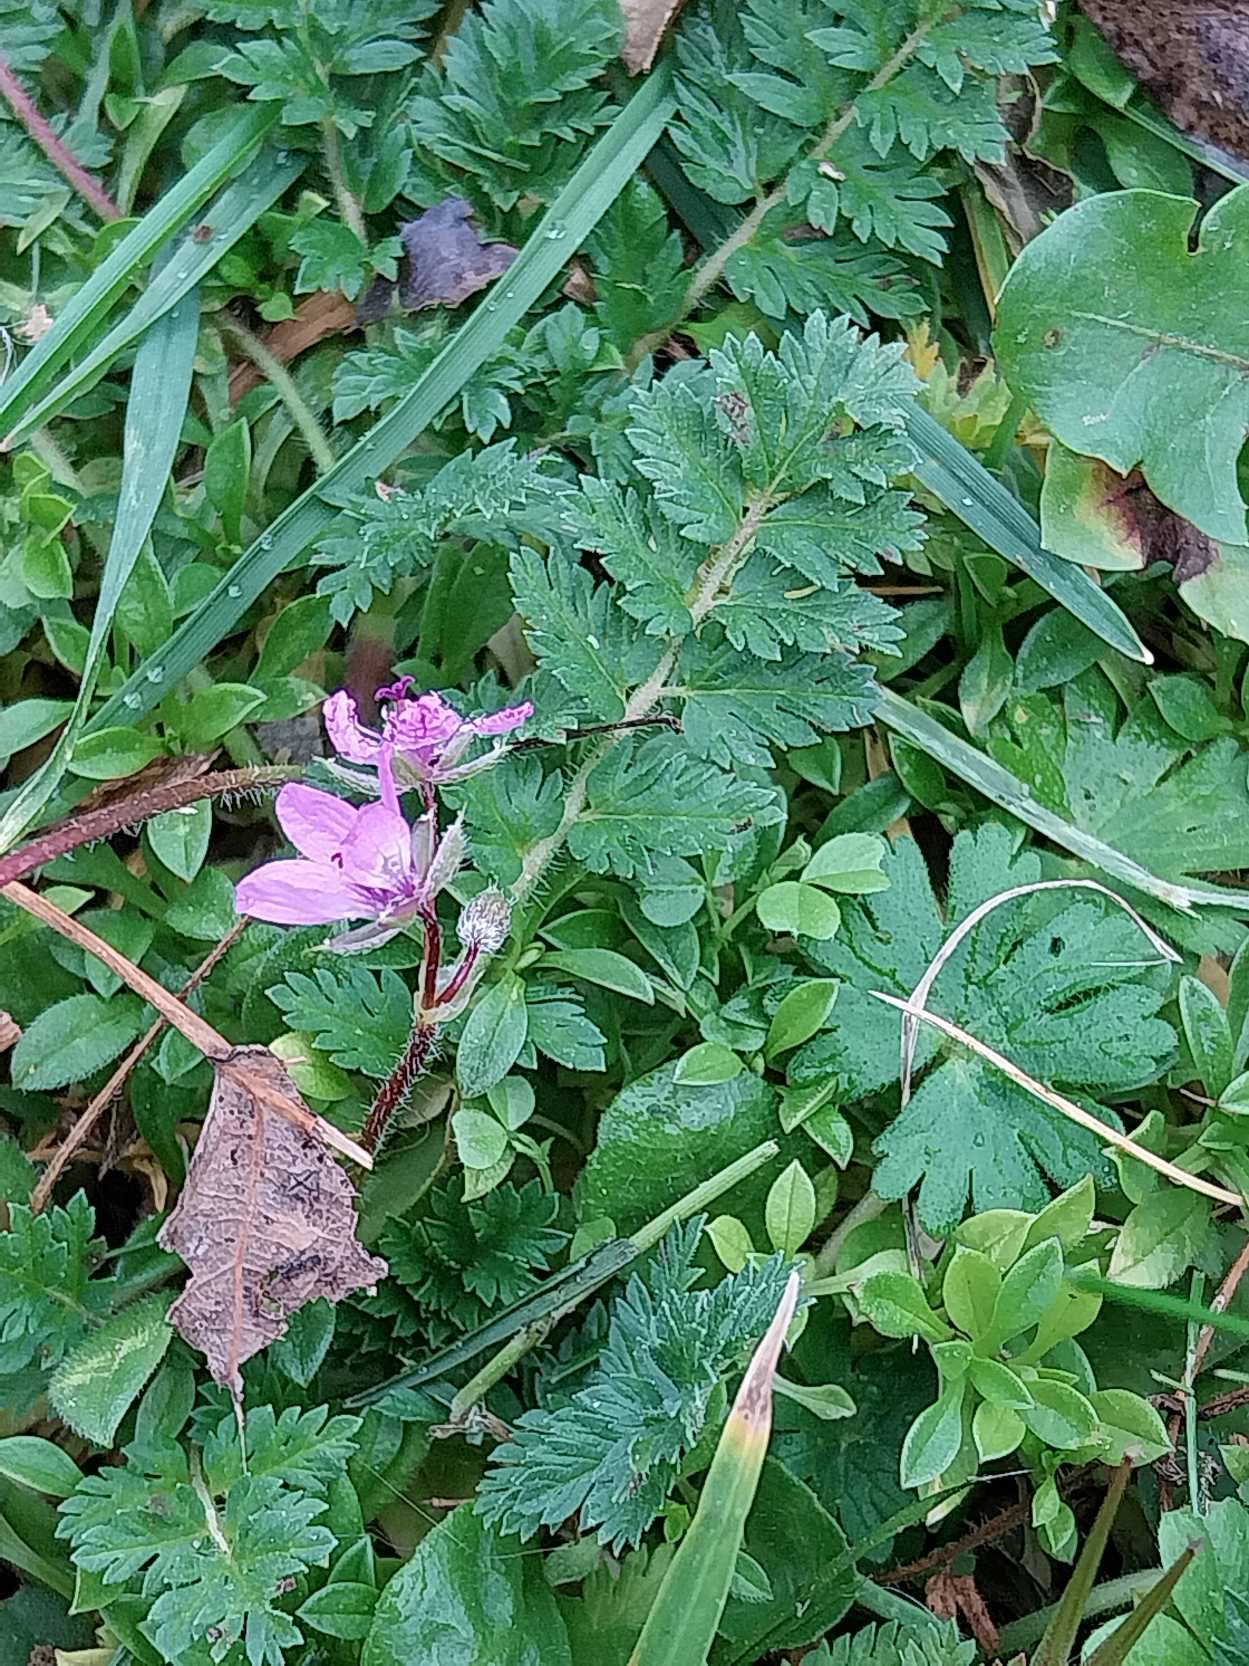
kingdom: Plantae
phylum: Tracheophyta
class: Magnoliopsida
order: Geraniales
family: Geraniaceae
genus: Erodium
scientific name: Erodium cicutarium
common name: Hejrenæb
